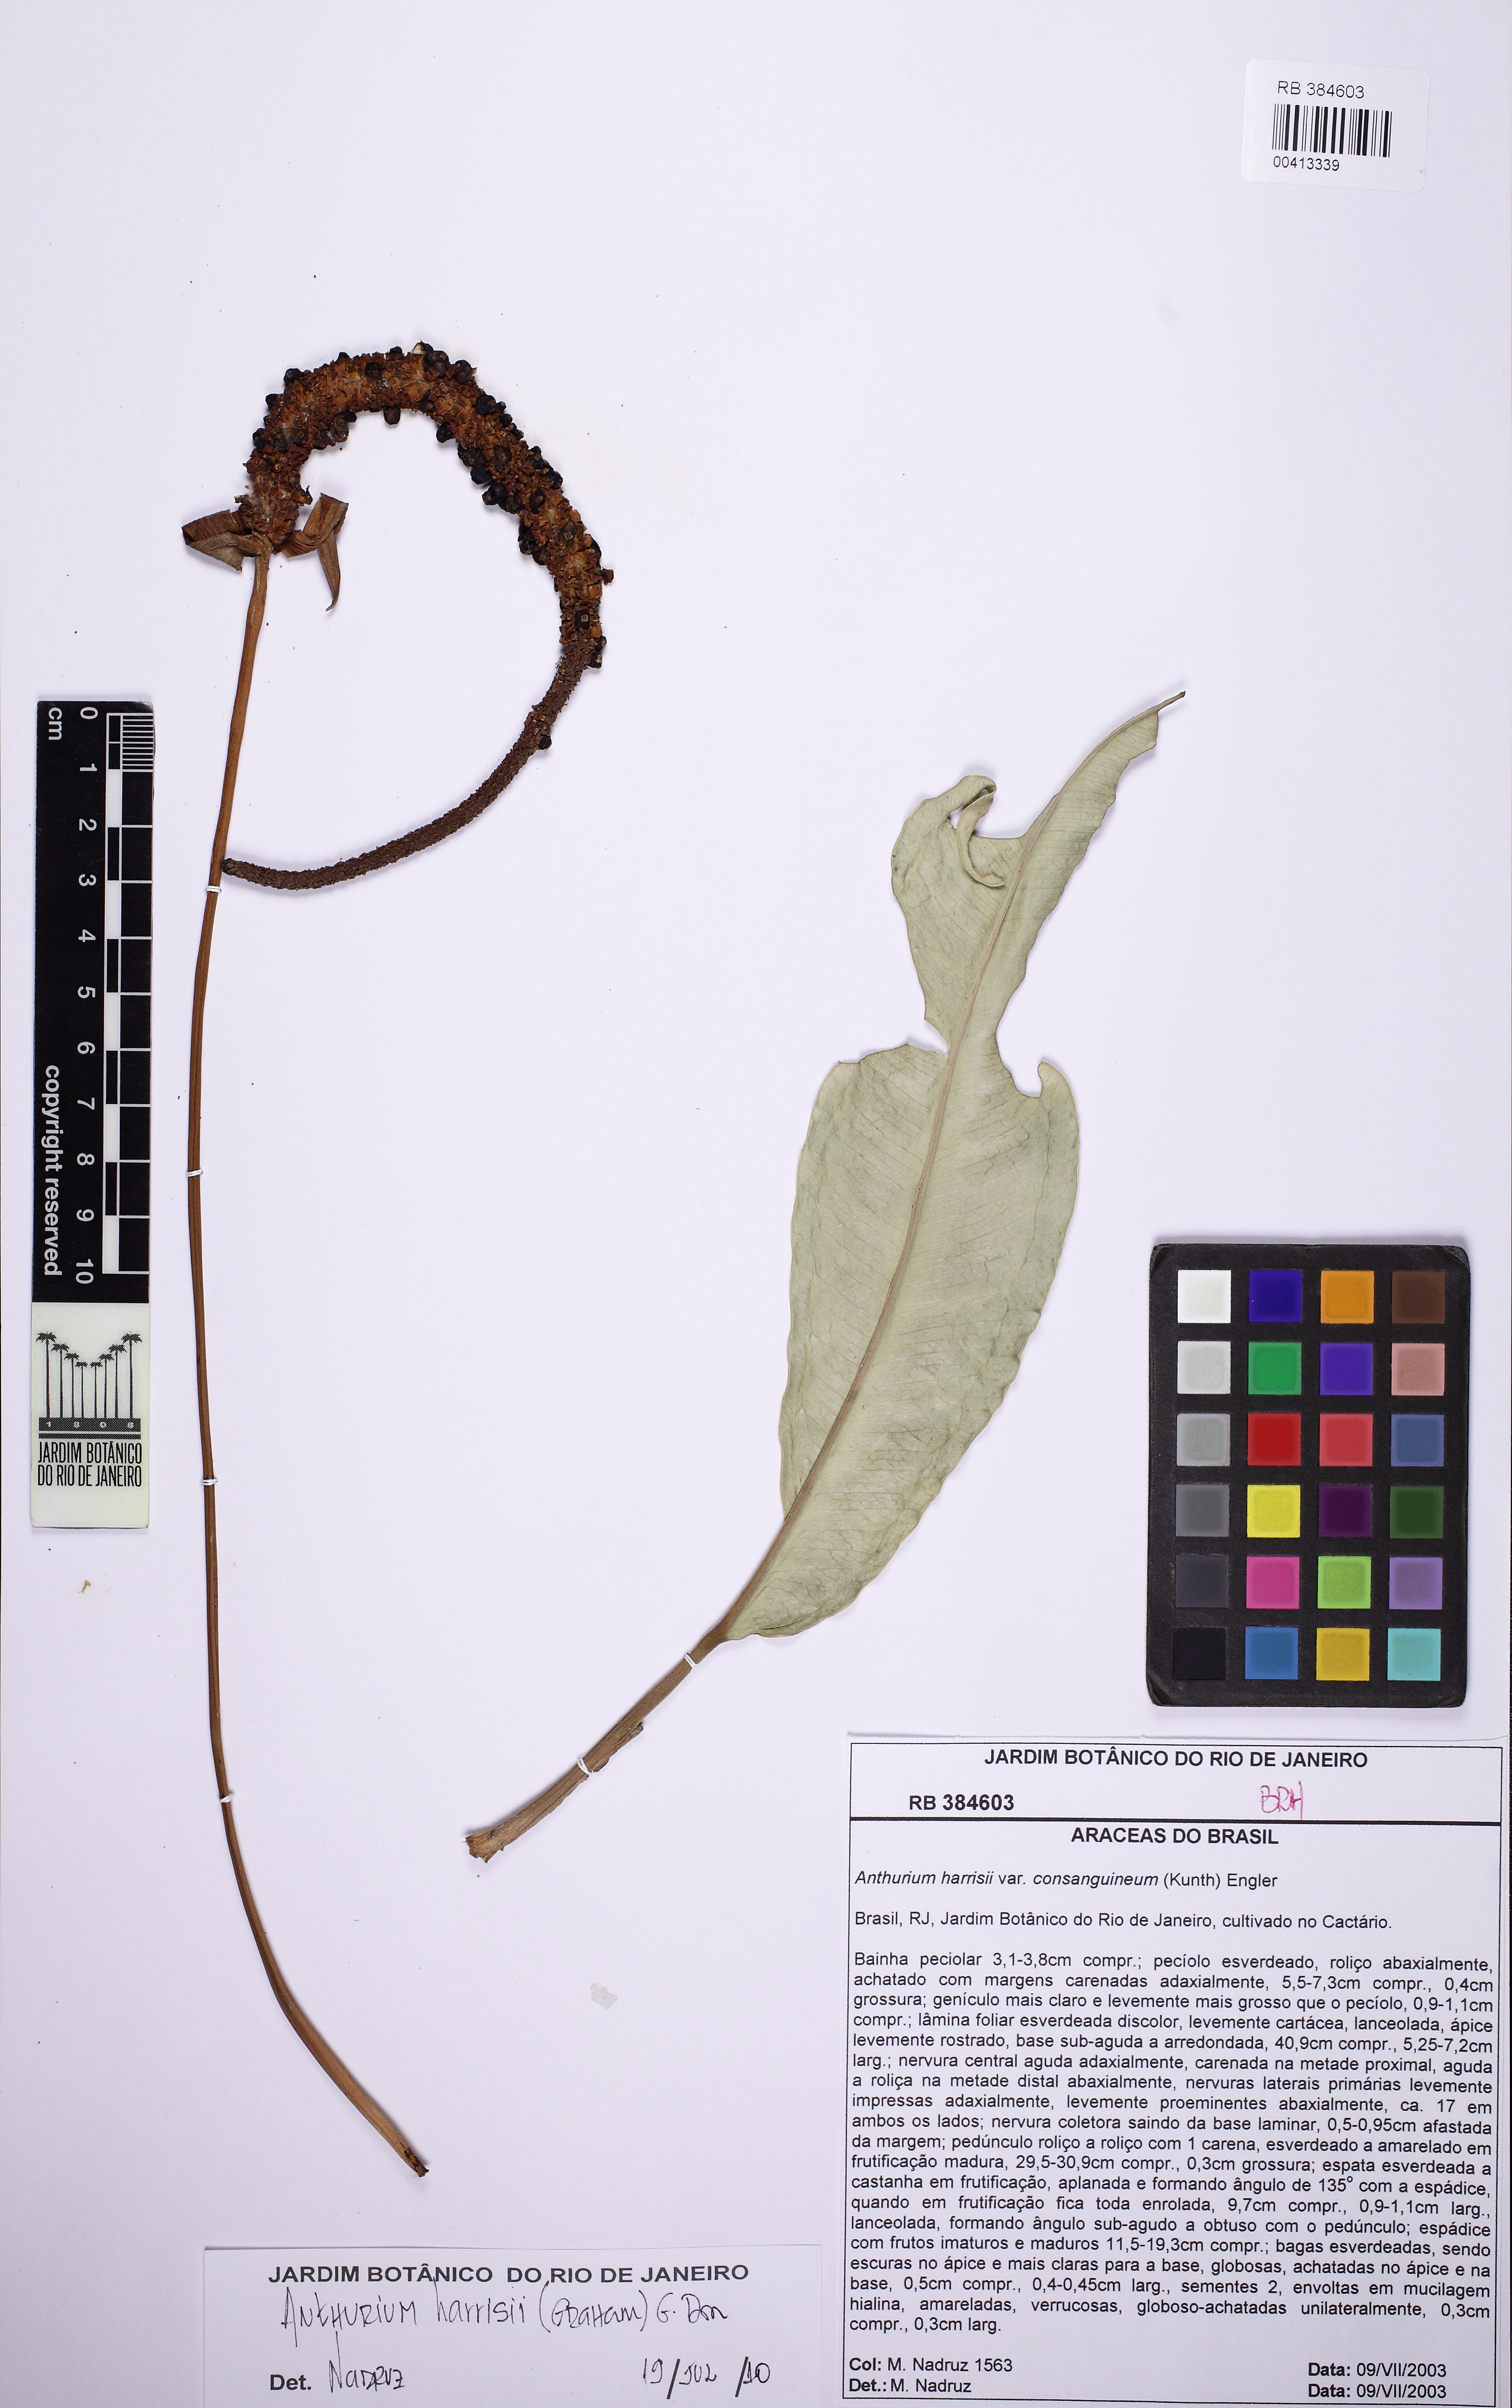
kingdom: Plantae
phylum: Tracheophyta
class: Liliopsida
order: Alismatales
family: Araceae
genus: Anthurium
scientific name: Anthurium harrisii
